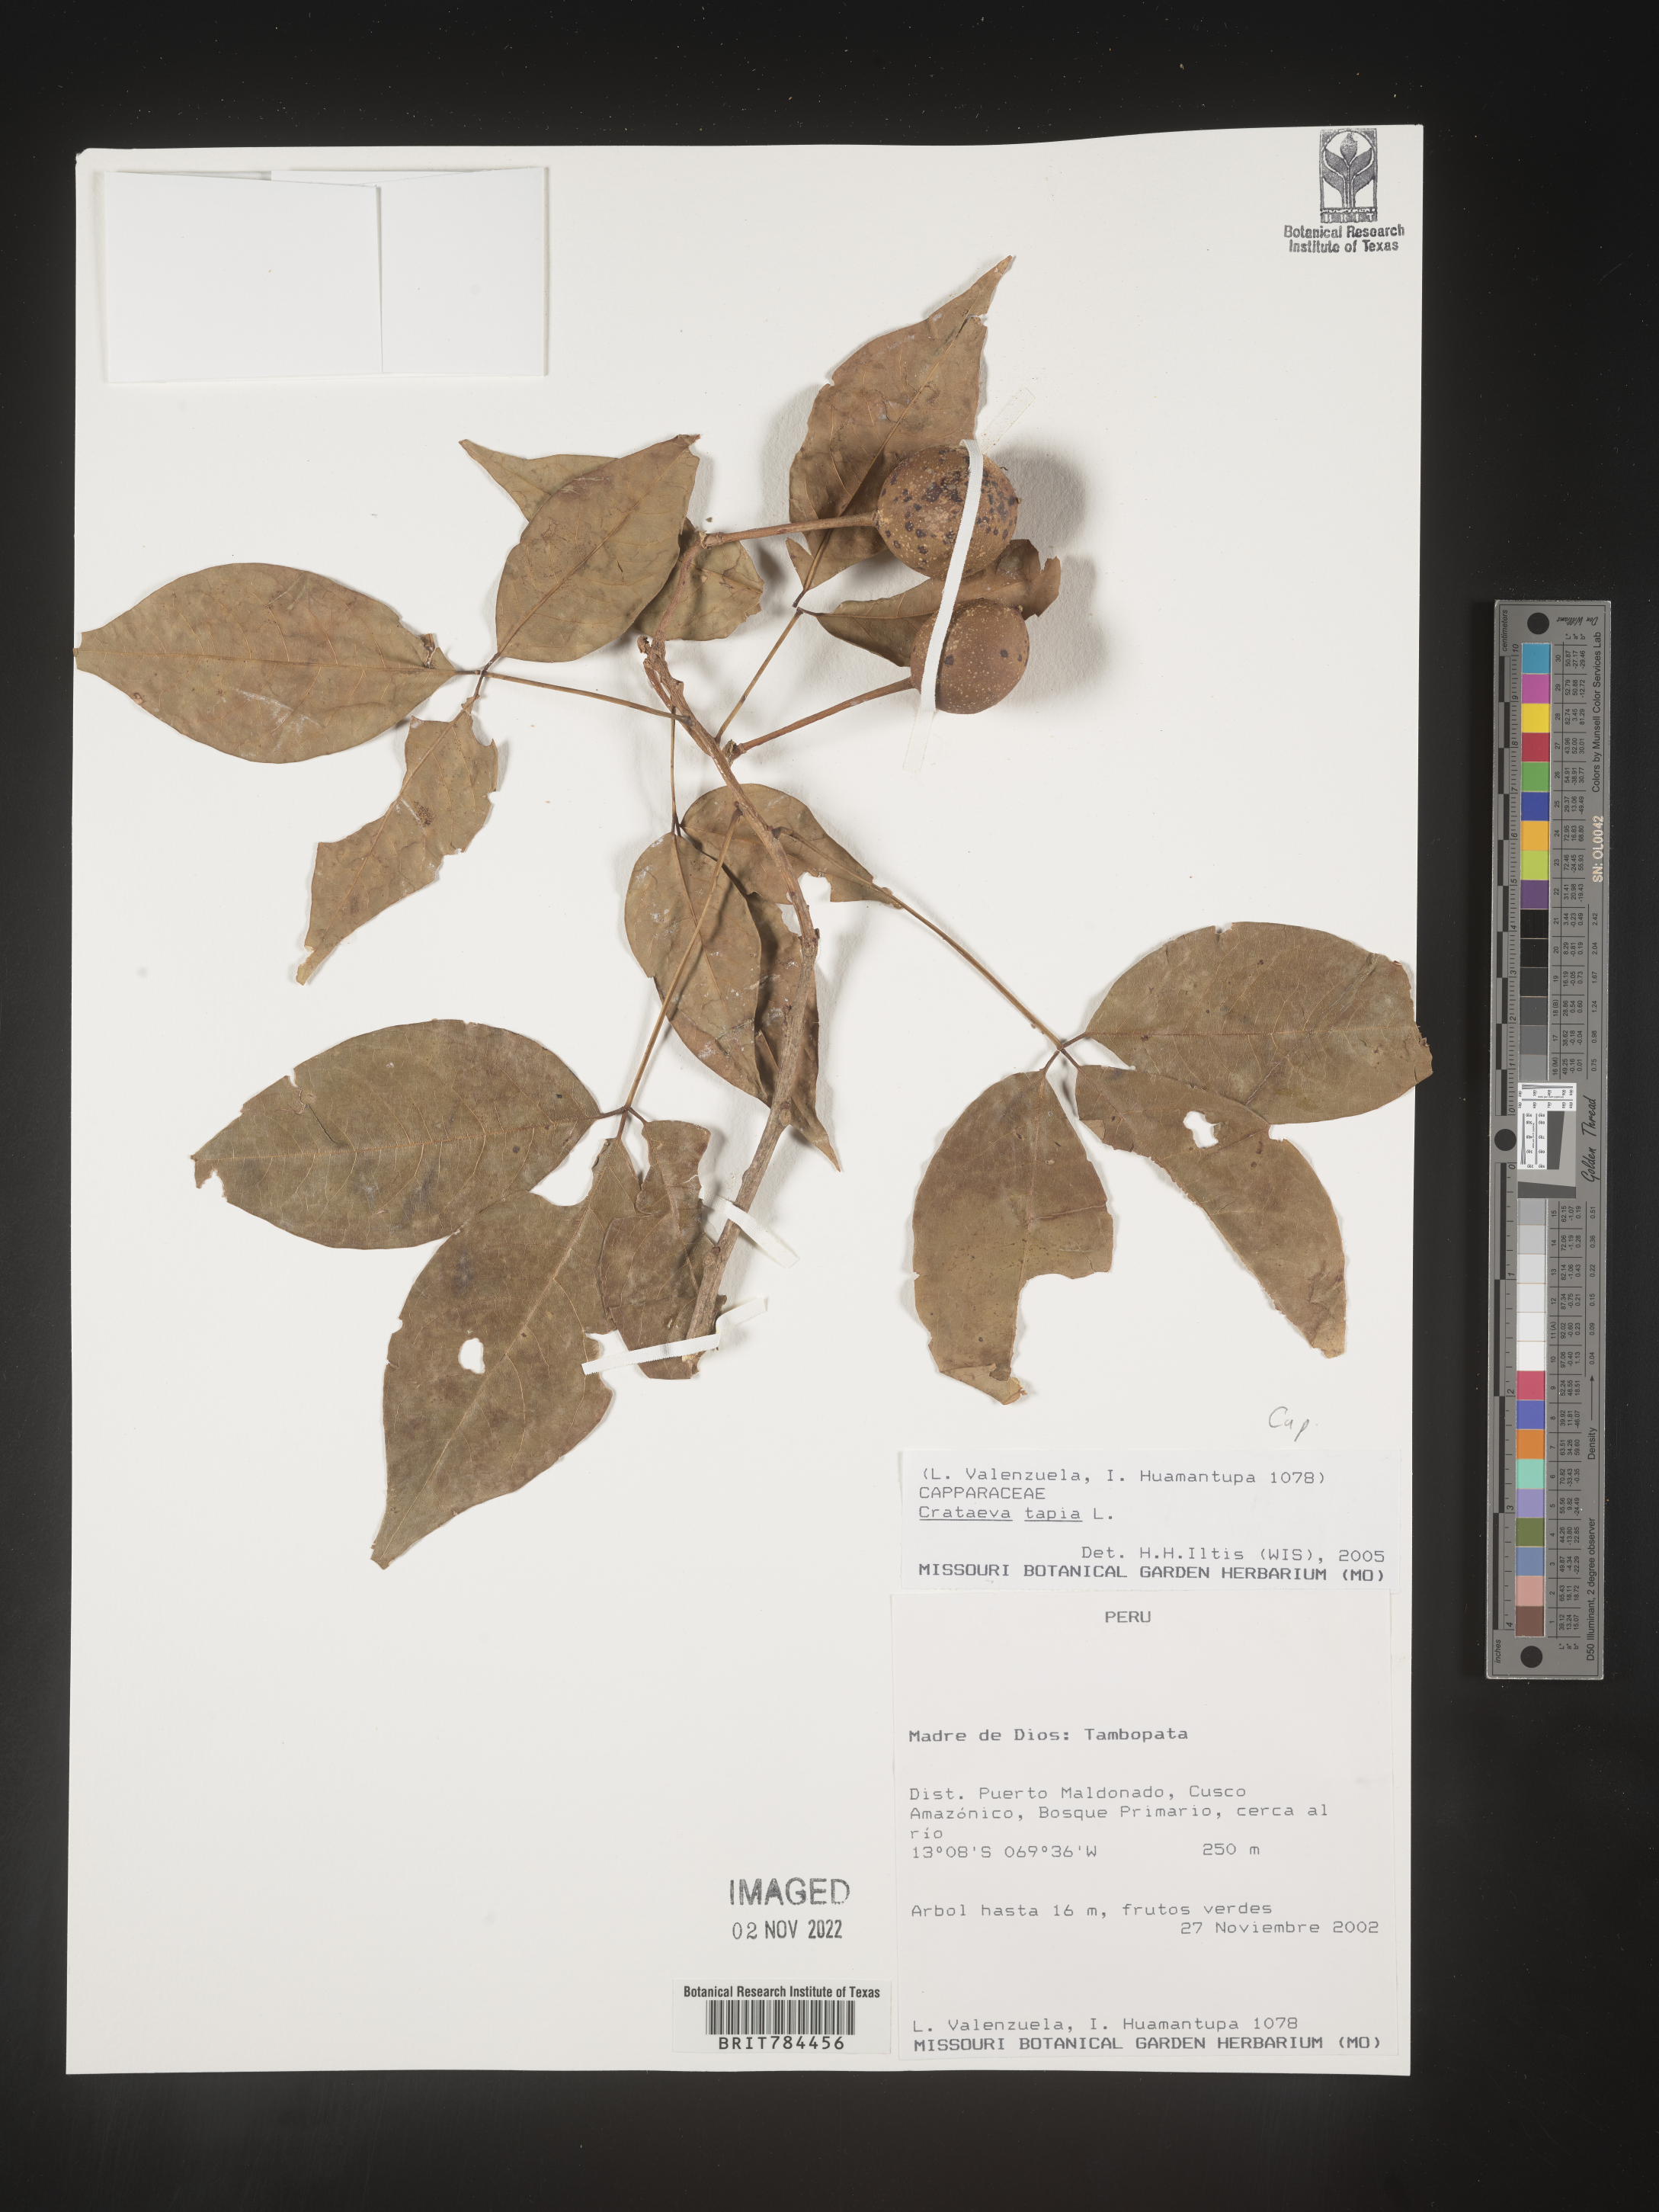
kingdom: Plantae
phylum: Tracheophyta
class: Magnoliopsida
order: Brassicales
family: Capparaceae
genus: Crateva
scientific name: Crateva
